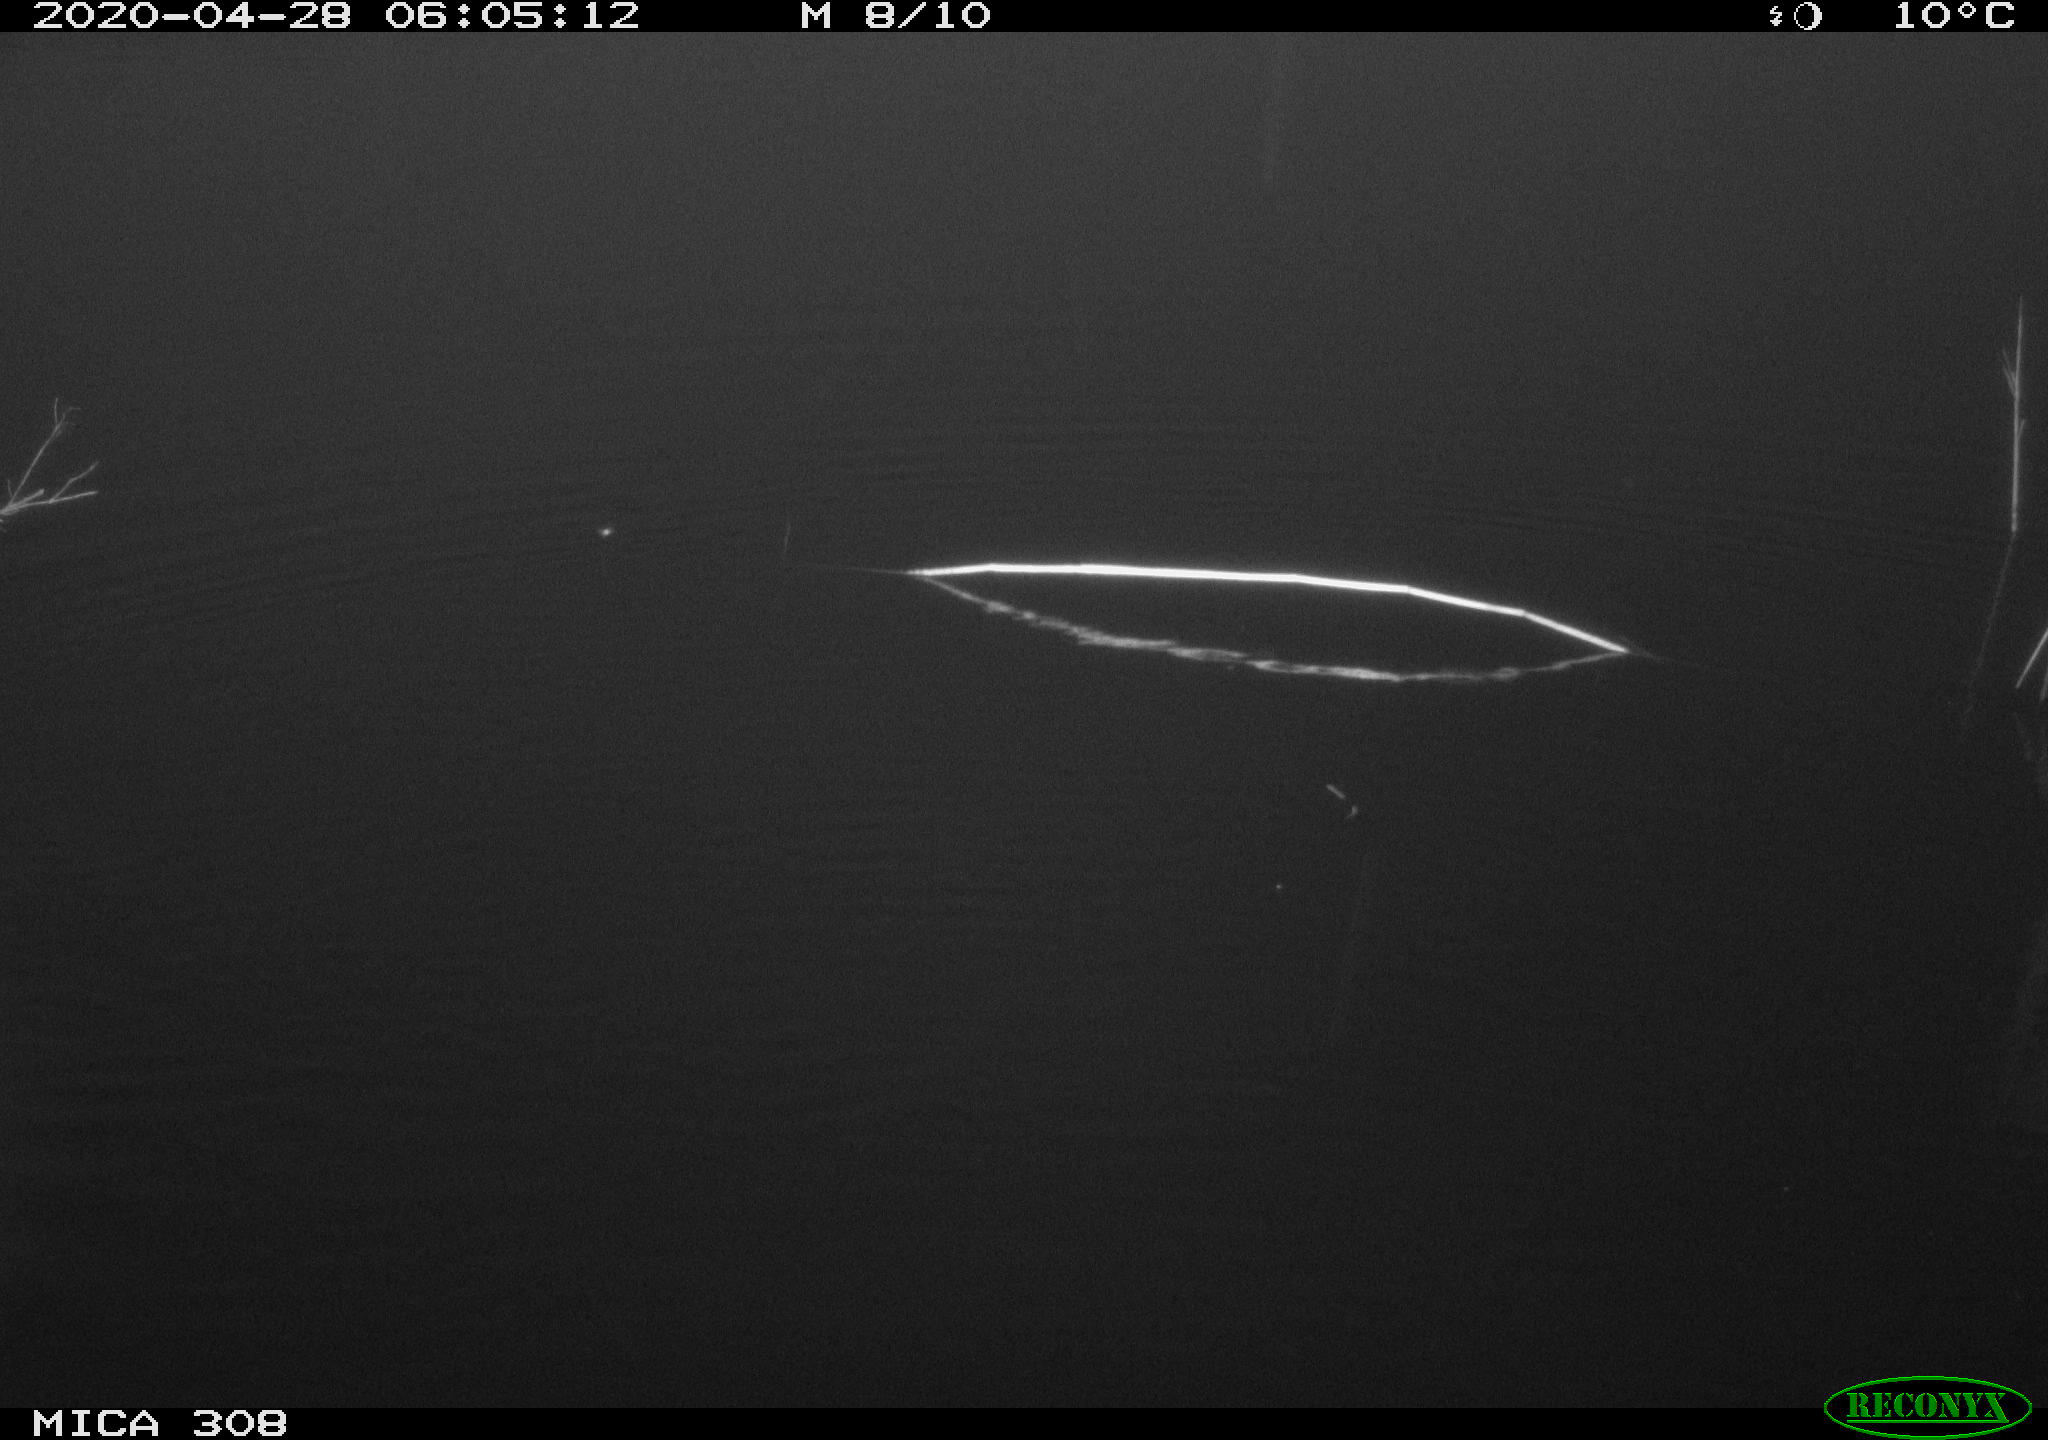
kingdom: Animalia
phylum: Chordata
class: Aves
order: Gruiformes
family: Rallidae
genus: Fulica
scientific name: Fulica atra
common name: Eurasian coot
